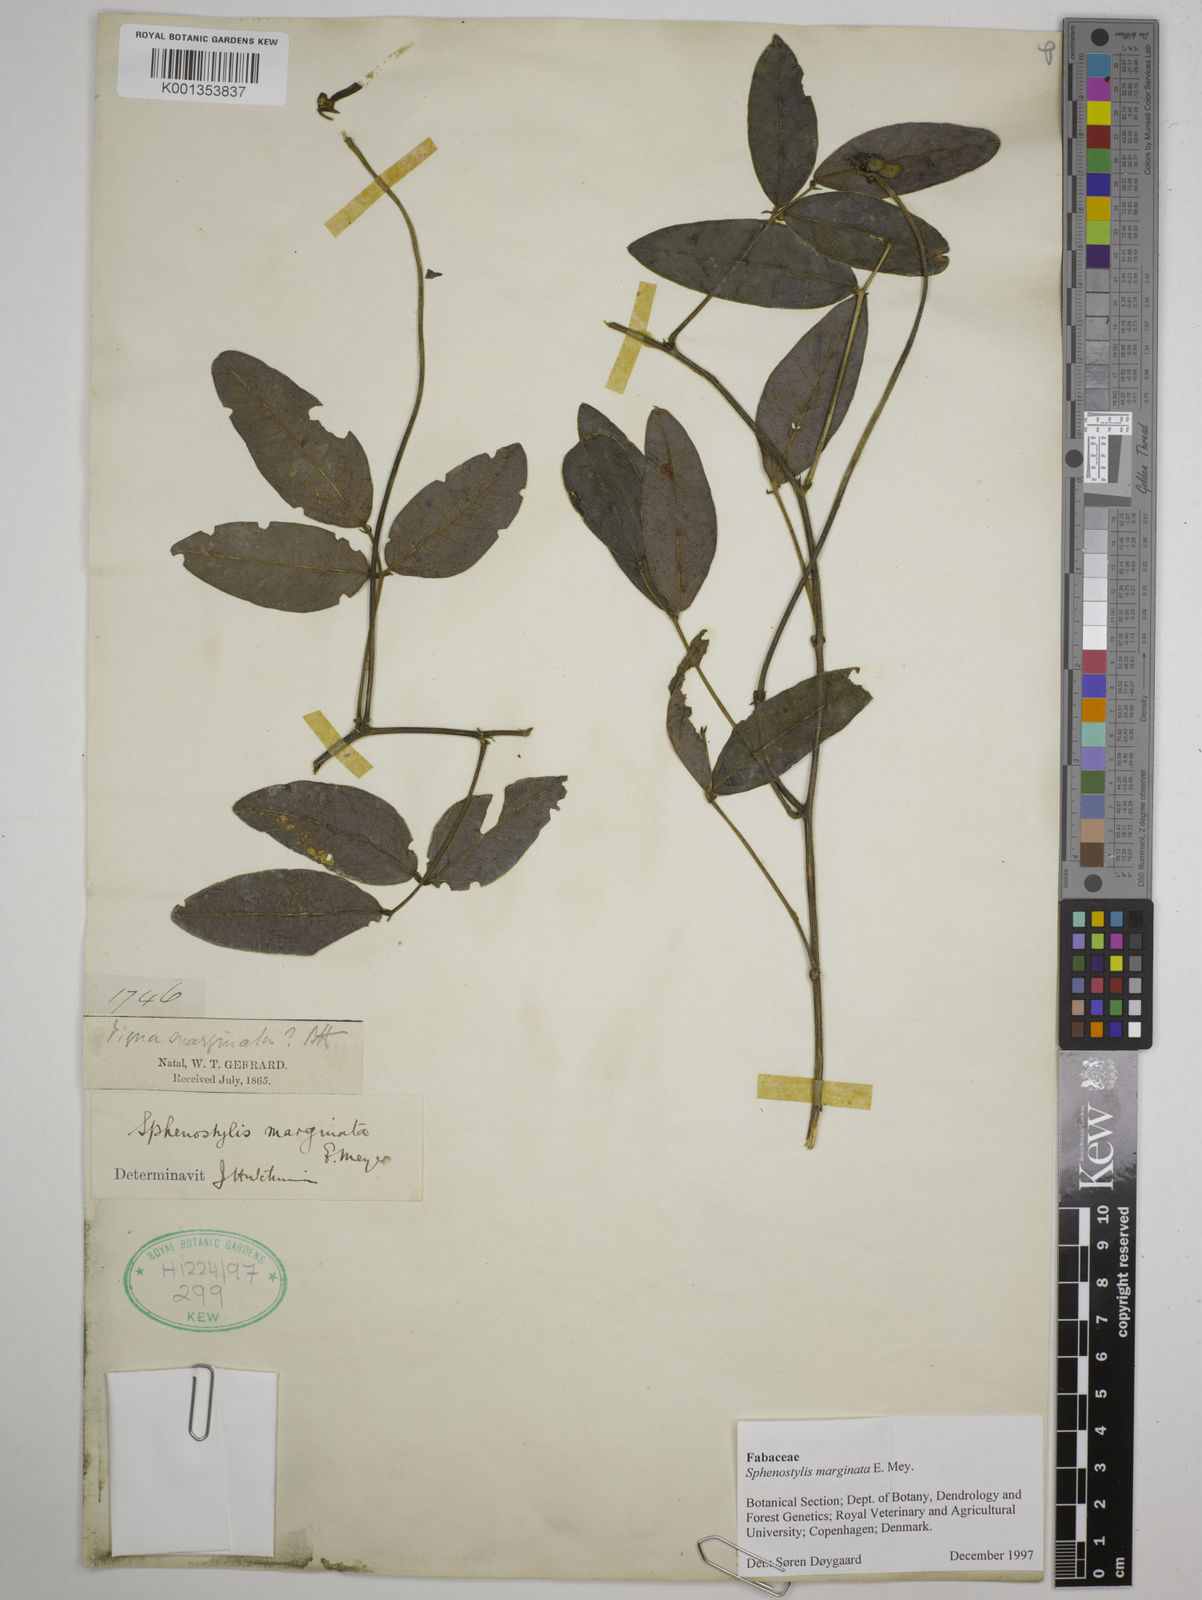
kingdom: Plantae
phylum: Tracheophyta
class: Magnoliopsida
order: Fabales
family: Fabaceae
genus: Sphenostylis
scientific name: Sphenostylis marginata
